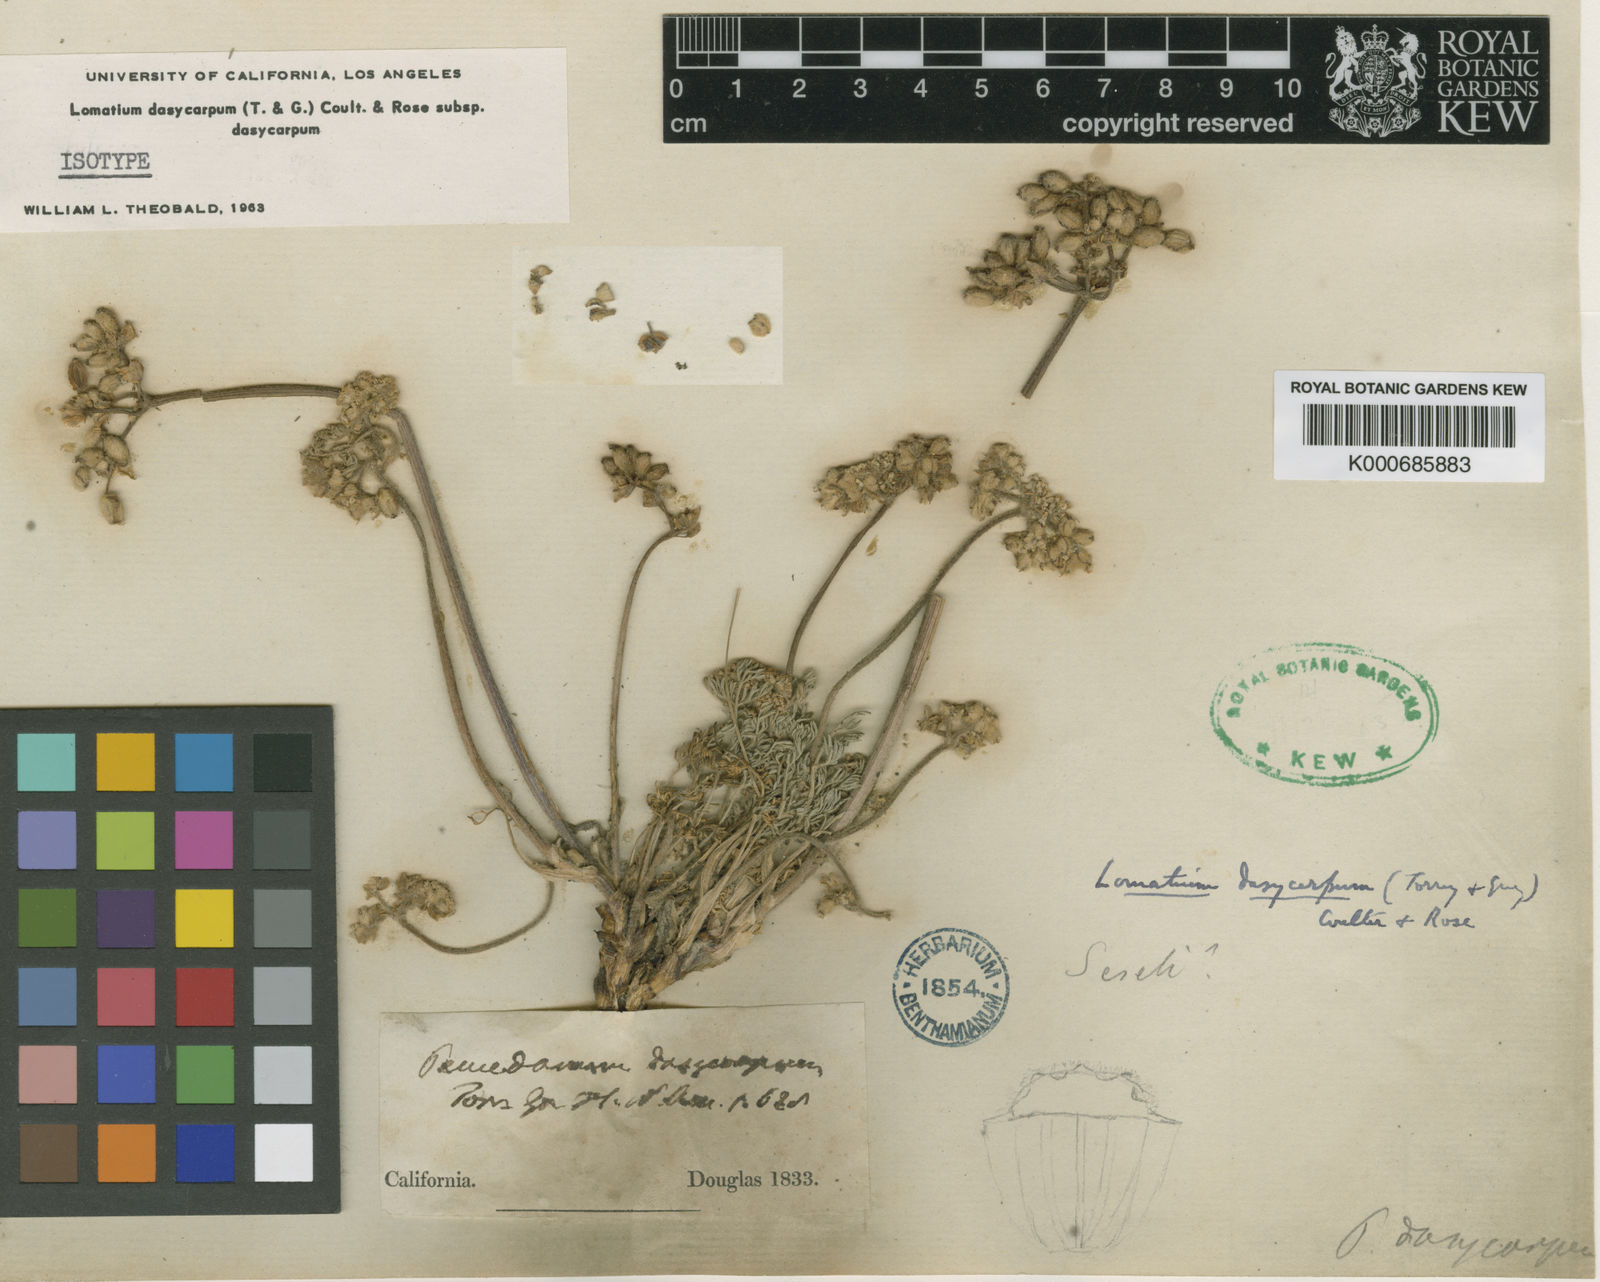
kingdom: Plantae
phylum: Tracheophyta
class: Magnoliopsida
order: Apiales
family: Apiaceae
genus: Lomatium
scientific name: Lomatium dasycarpum
